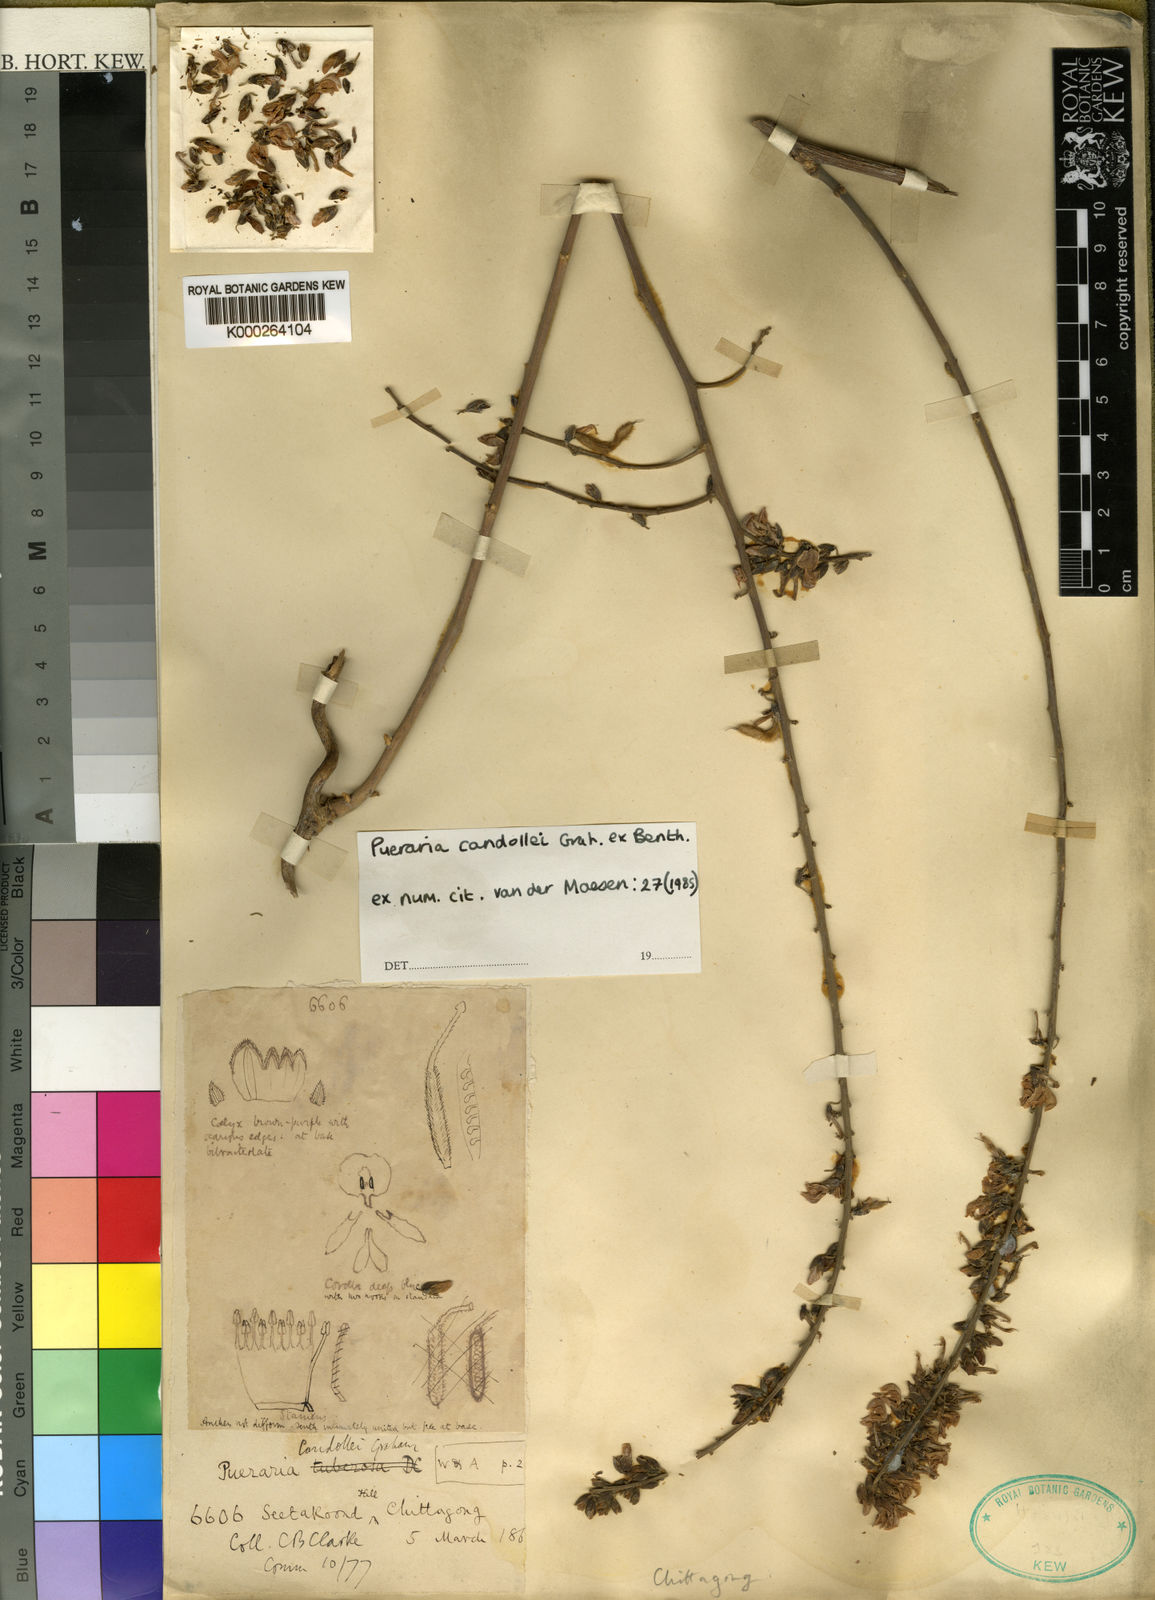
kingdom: Plantae
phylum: Tracheophyta
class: Magnoliopsida
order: Fabales
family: Fabaceae
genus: Pueraria
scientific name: Pueraria candollei
